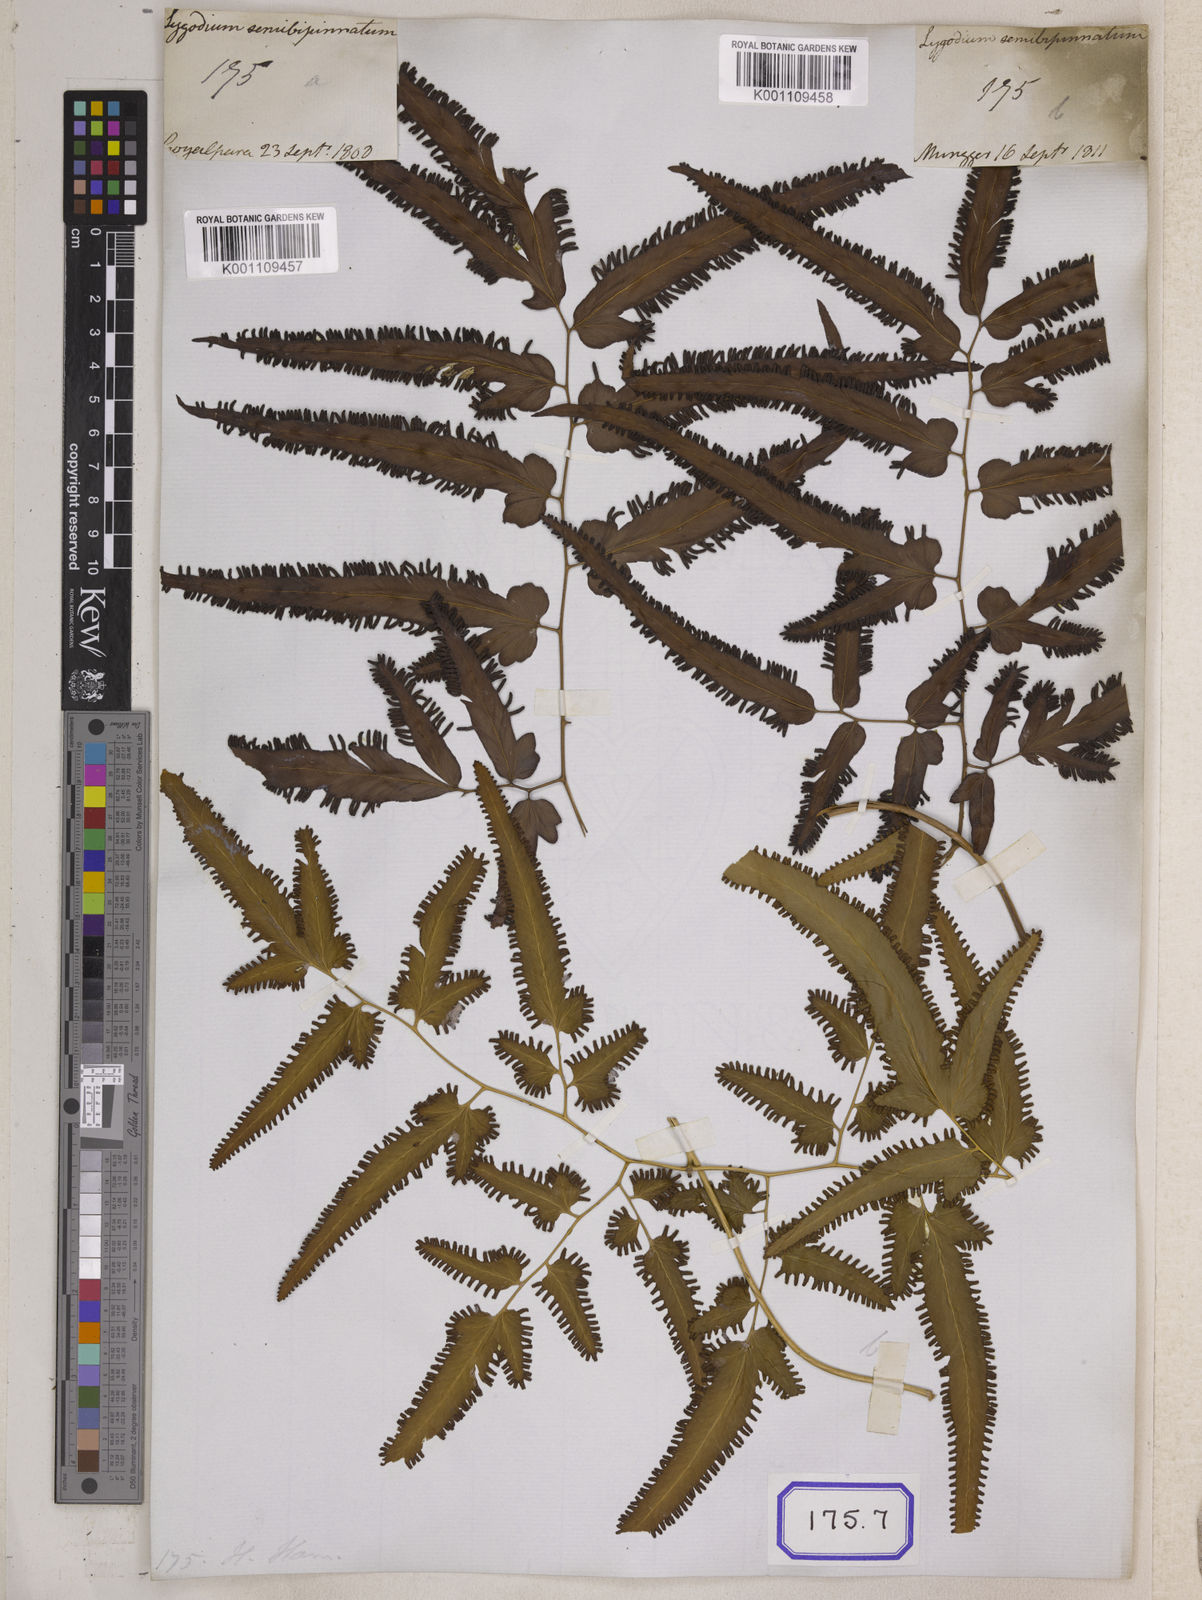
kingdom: Plantae
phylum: Tracheophyta
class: Polypodiopsida
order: Schizaeales
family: Lygodiaceae
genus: Lygodium
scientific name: Lygodium flexuosum
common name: Maidenhair creeper
